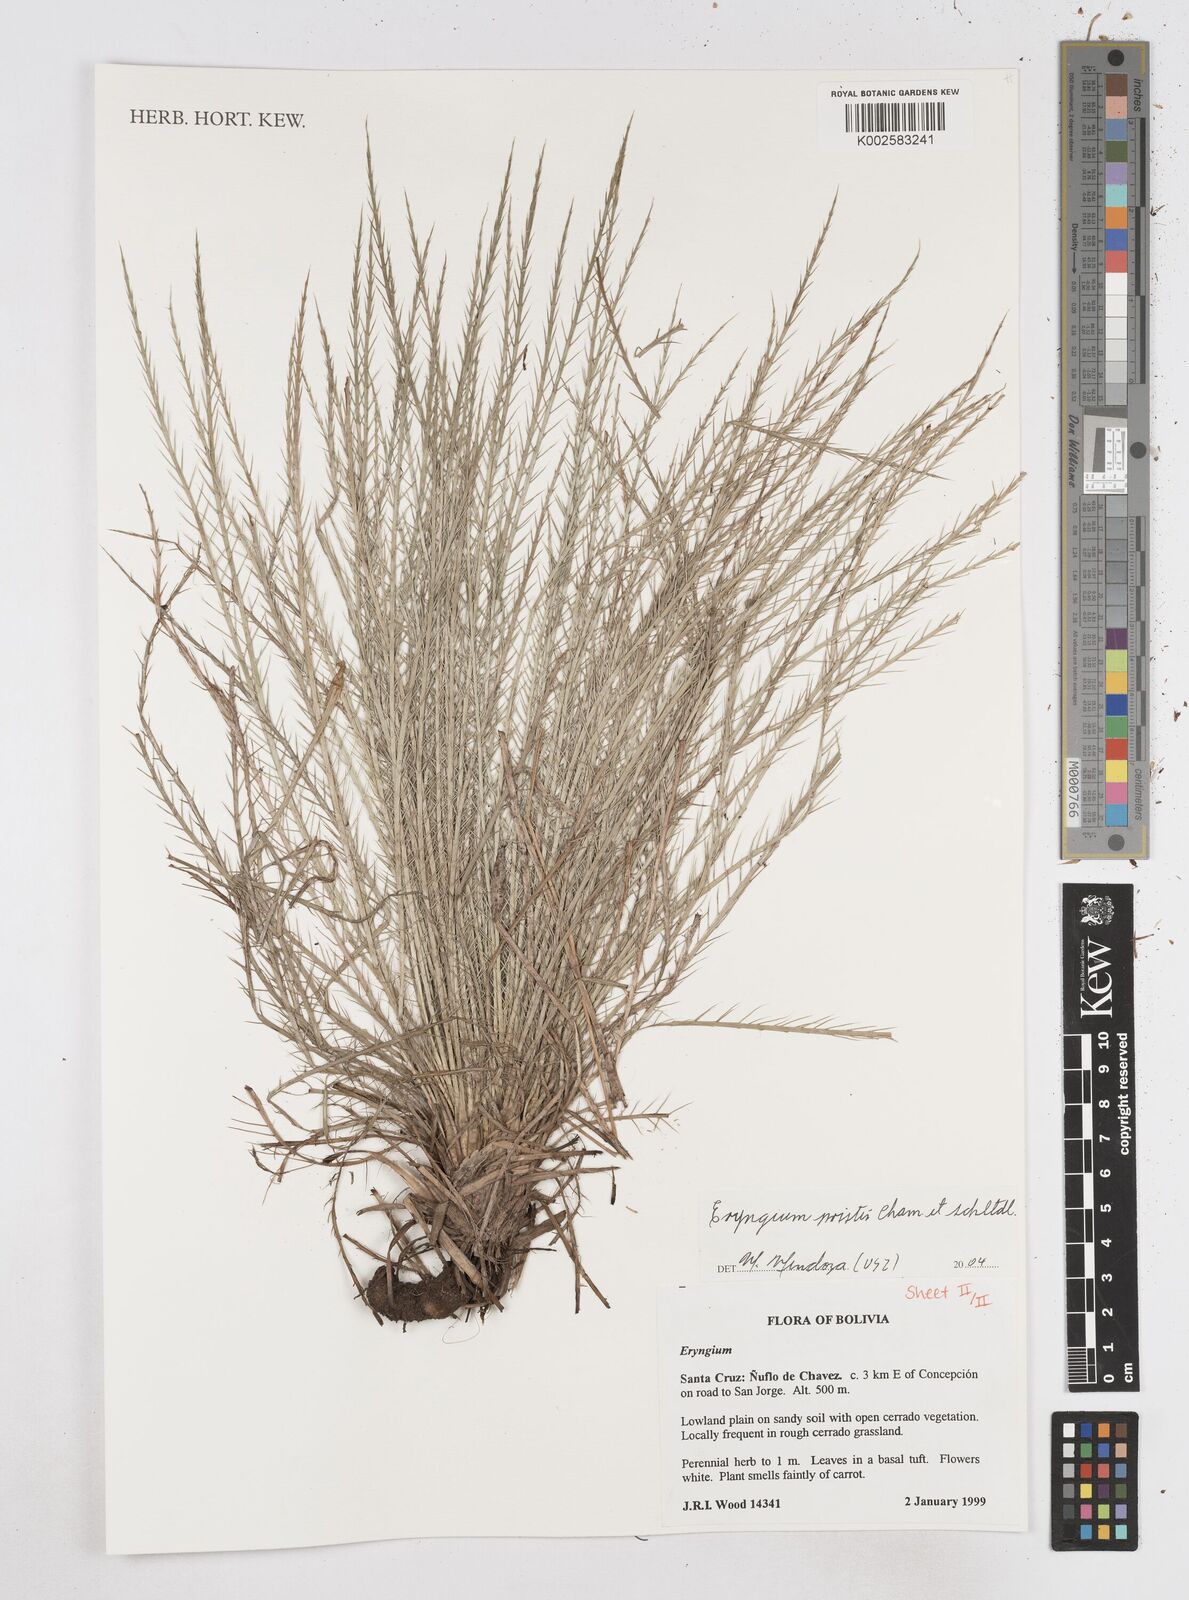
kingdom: Plantae
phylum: Tracheophyta
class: Magnoliopsida
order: Apiales
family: Apiaceae
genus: Eryngium
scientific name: Eryngium pristis
